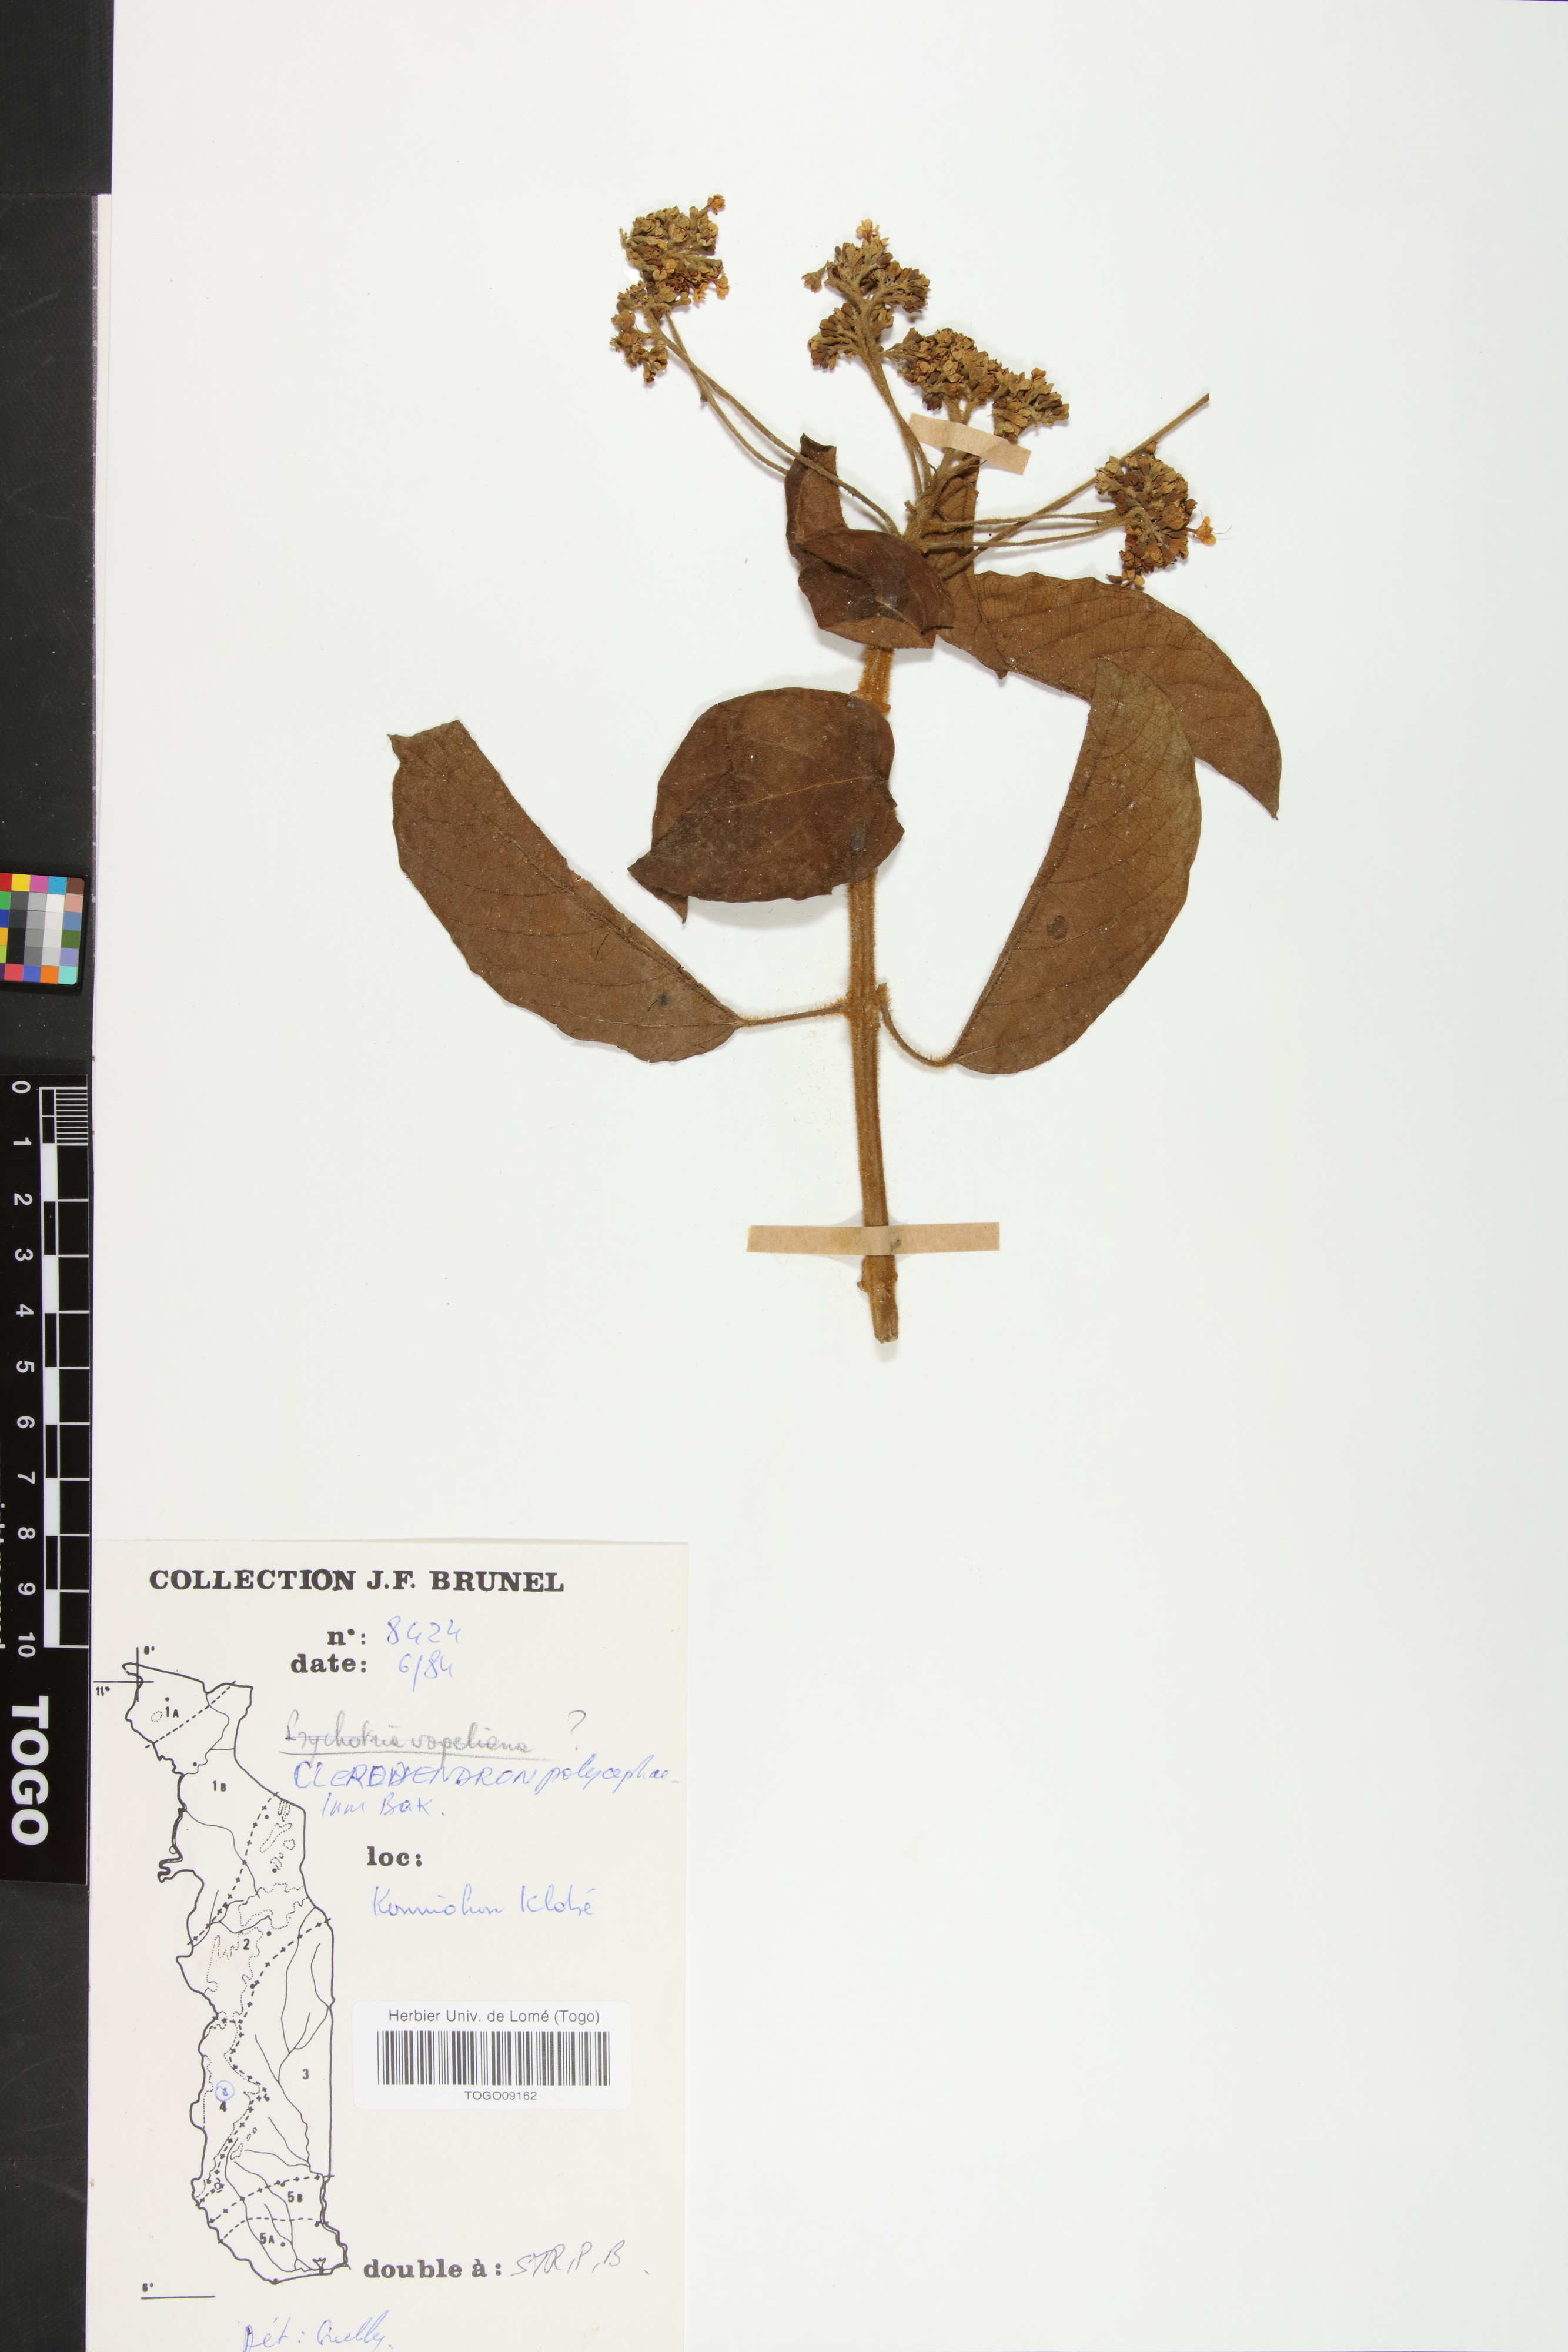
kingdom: Plantae
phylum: Tracheophyta
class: Magnoliopsida
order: Lamiales
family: Lamiaceae
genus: Clerodendrum
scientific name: Clerodendrum polycephalum
